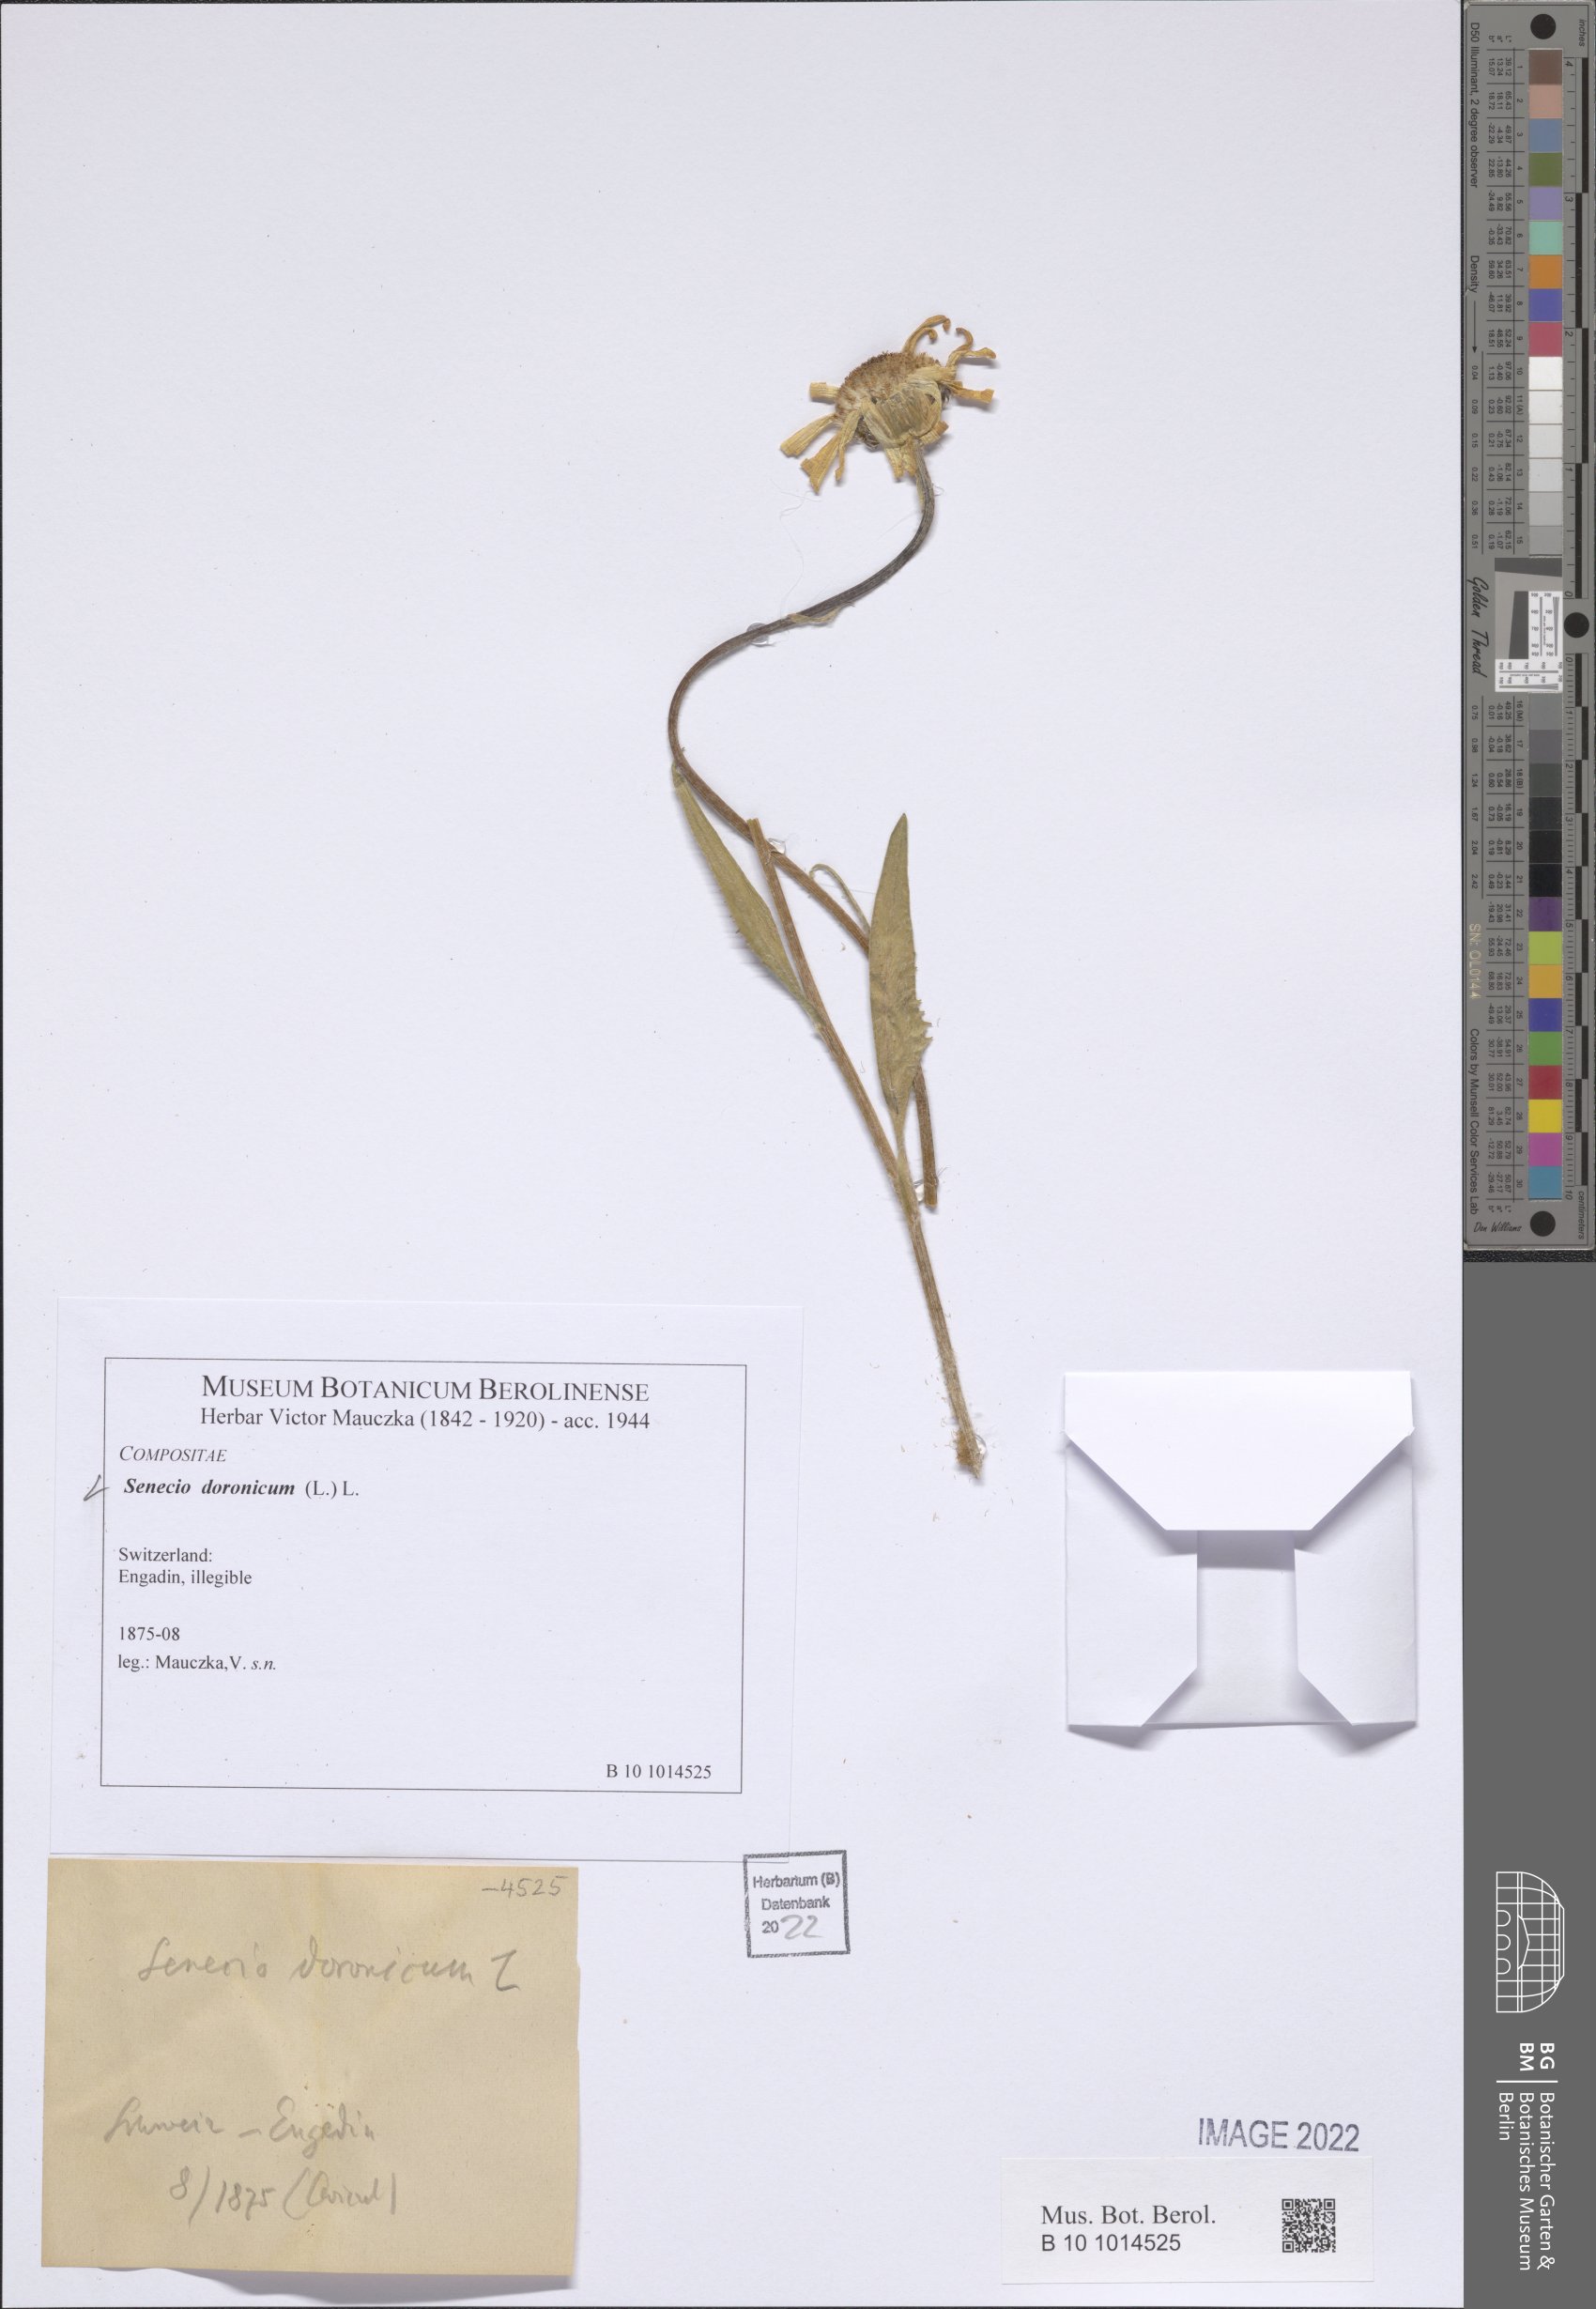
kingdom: Plantae
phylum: Tracheophyta
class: Magnoliopsida
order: Asterales
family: Asteraceae
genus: Senecio
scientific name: Senecio doronicum
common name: Chamois ragwort
